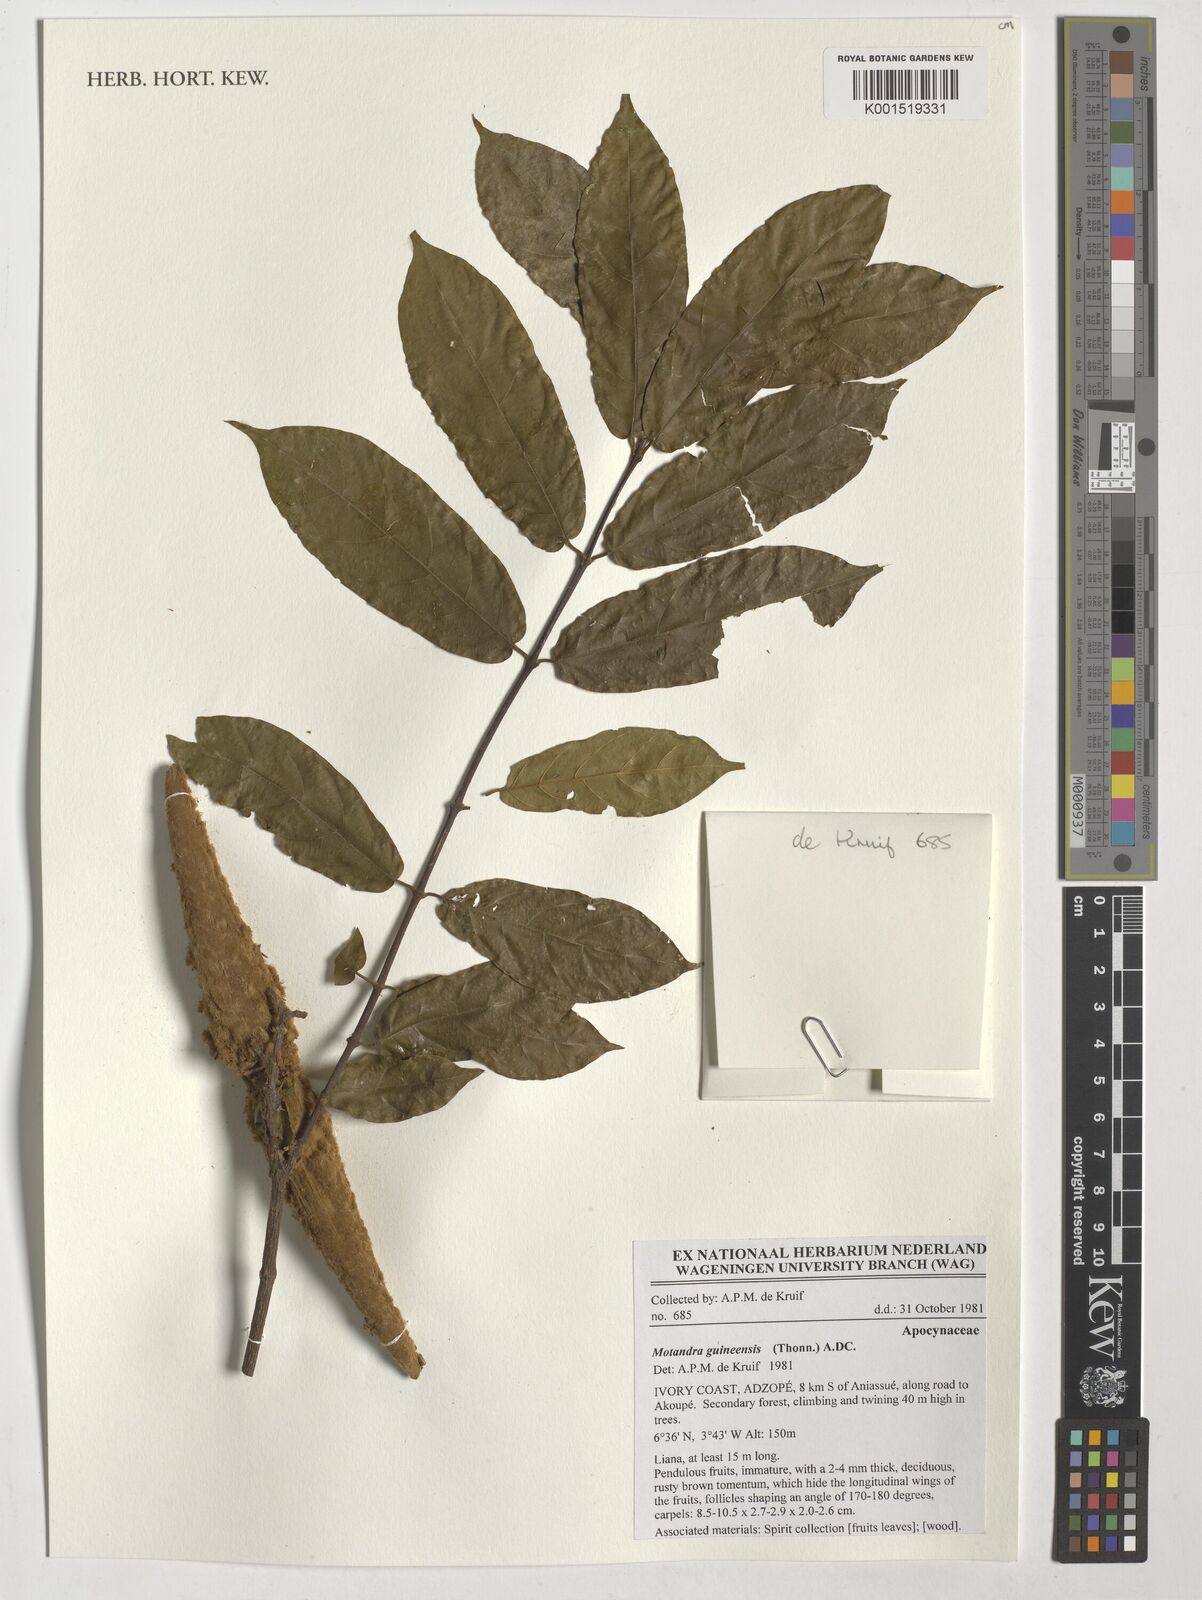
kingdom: Plantae
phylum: Tracheophyta
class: Magnoliopsida
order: Gentianales
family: Apocynaceae
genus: Motandra
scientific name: Motandra paniculata
